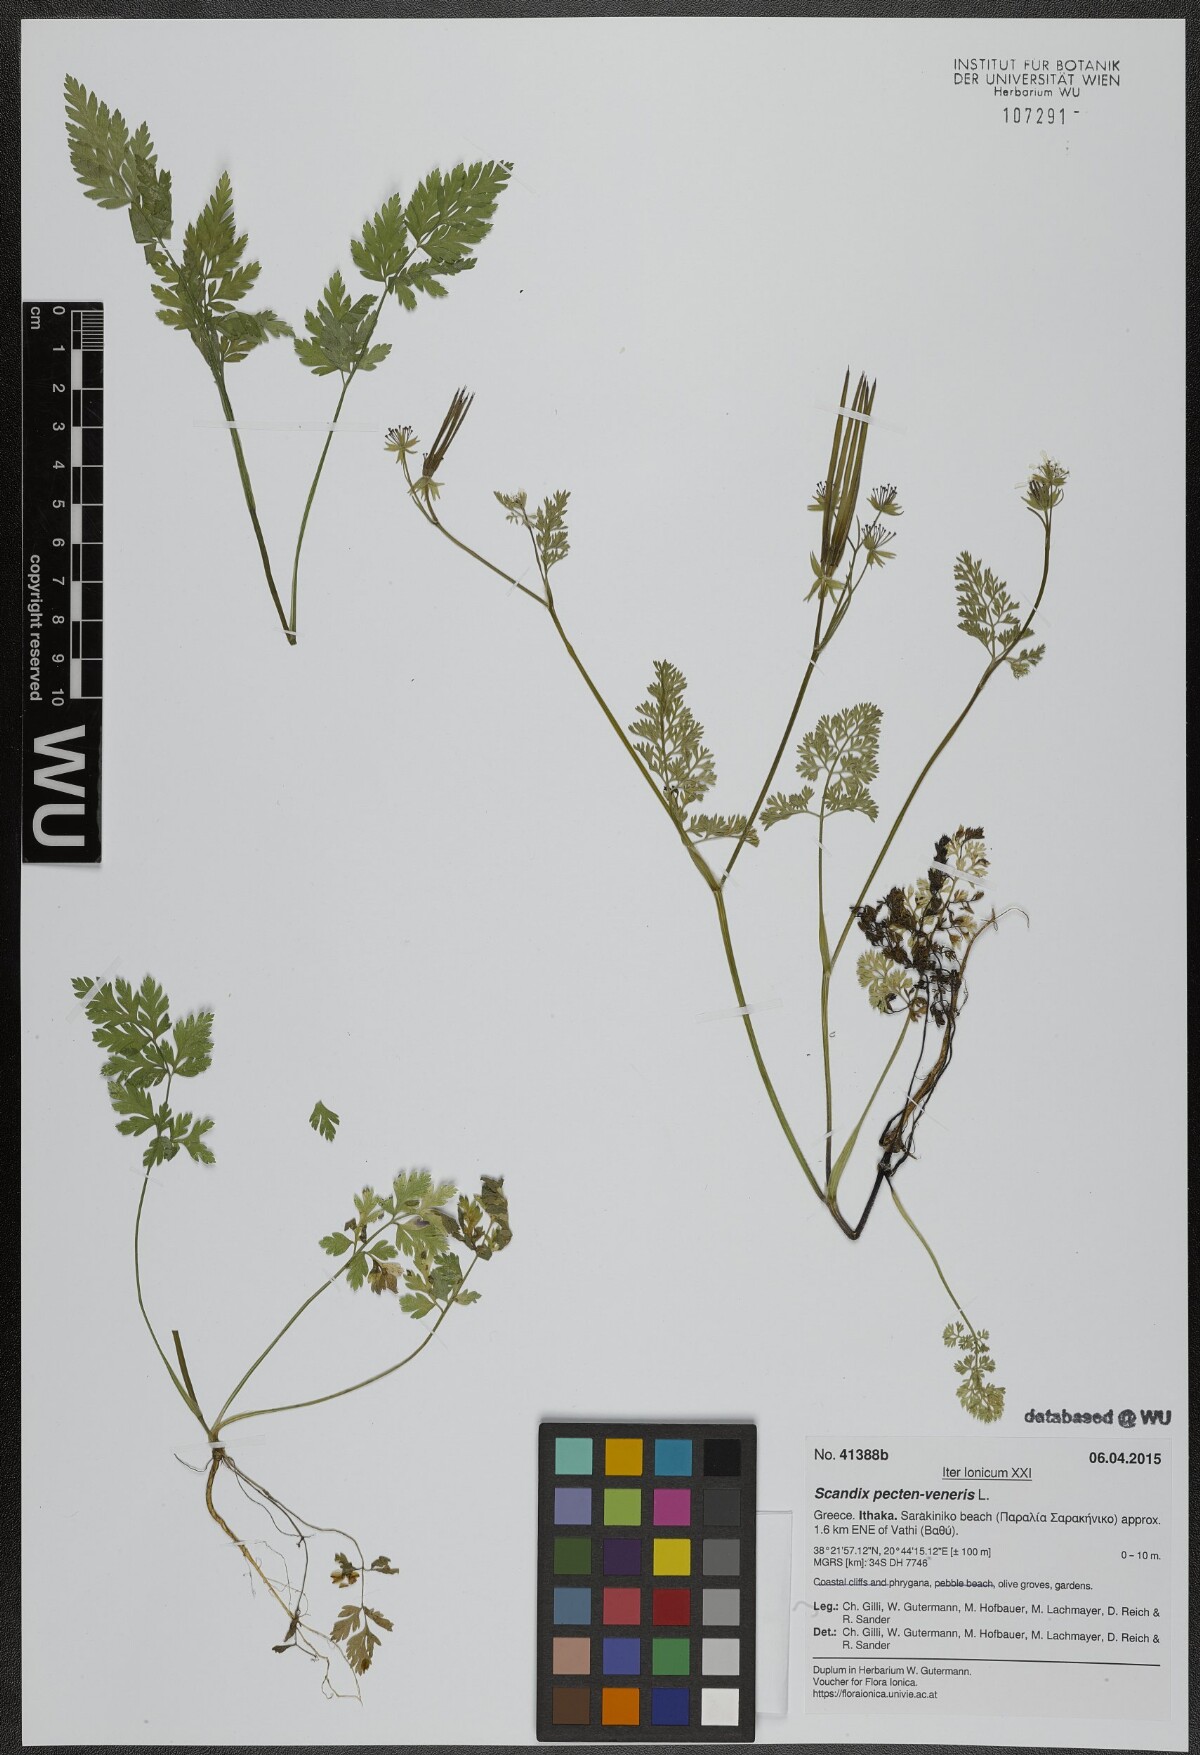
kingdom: Plantae
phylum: Tracheophyta
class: Magnoliopsida
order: Apiales
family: Apiaceae
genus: Scandix
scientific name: Scandix pecten-veneris
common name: Shepherd's-needle
